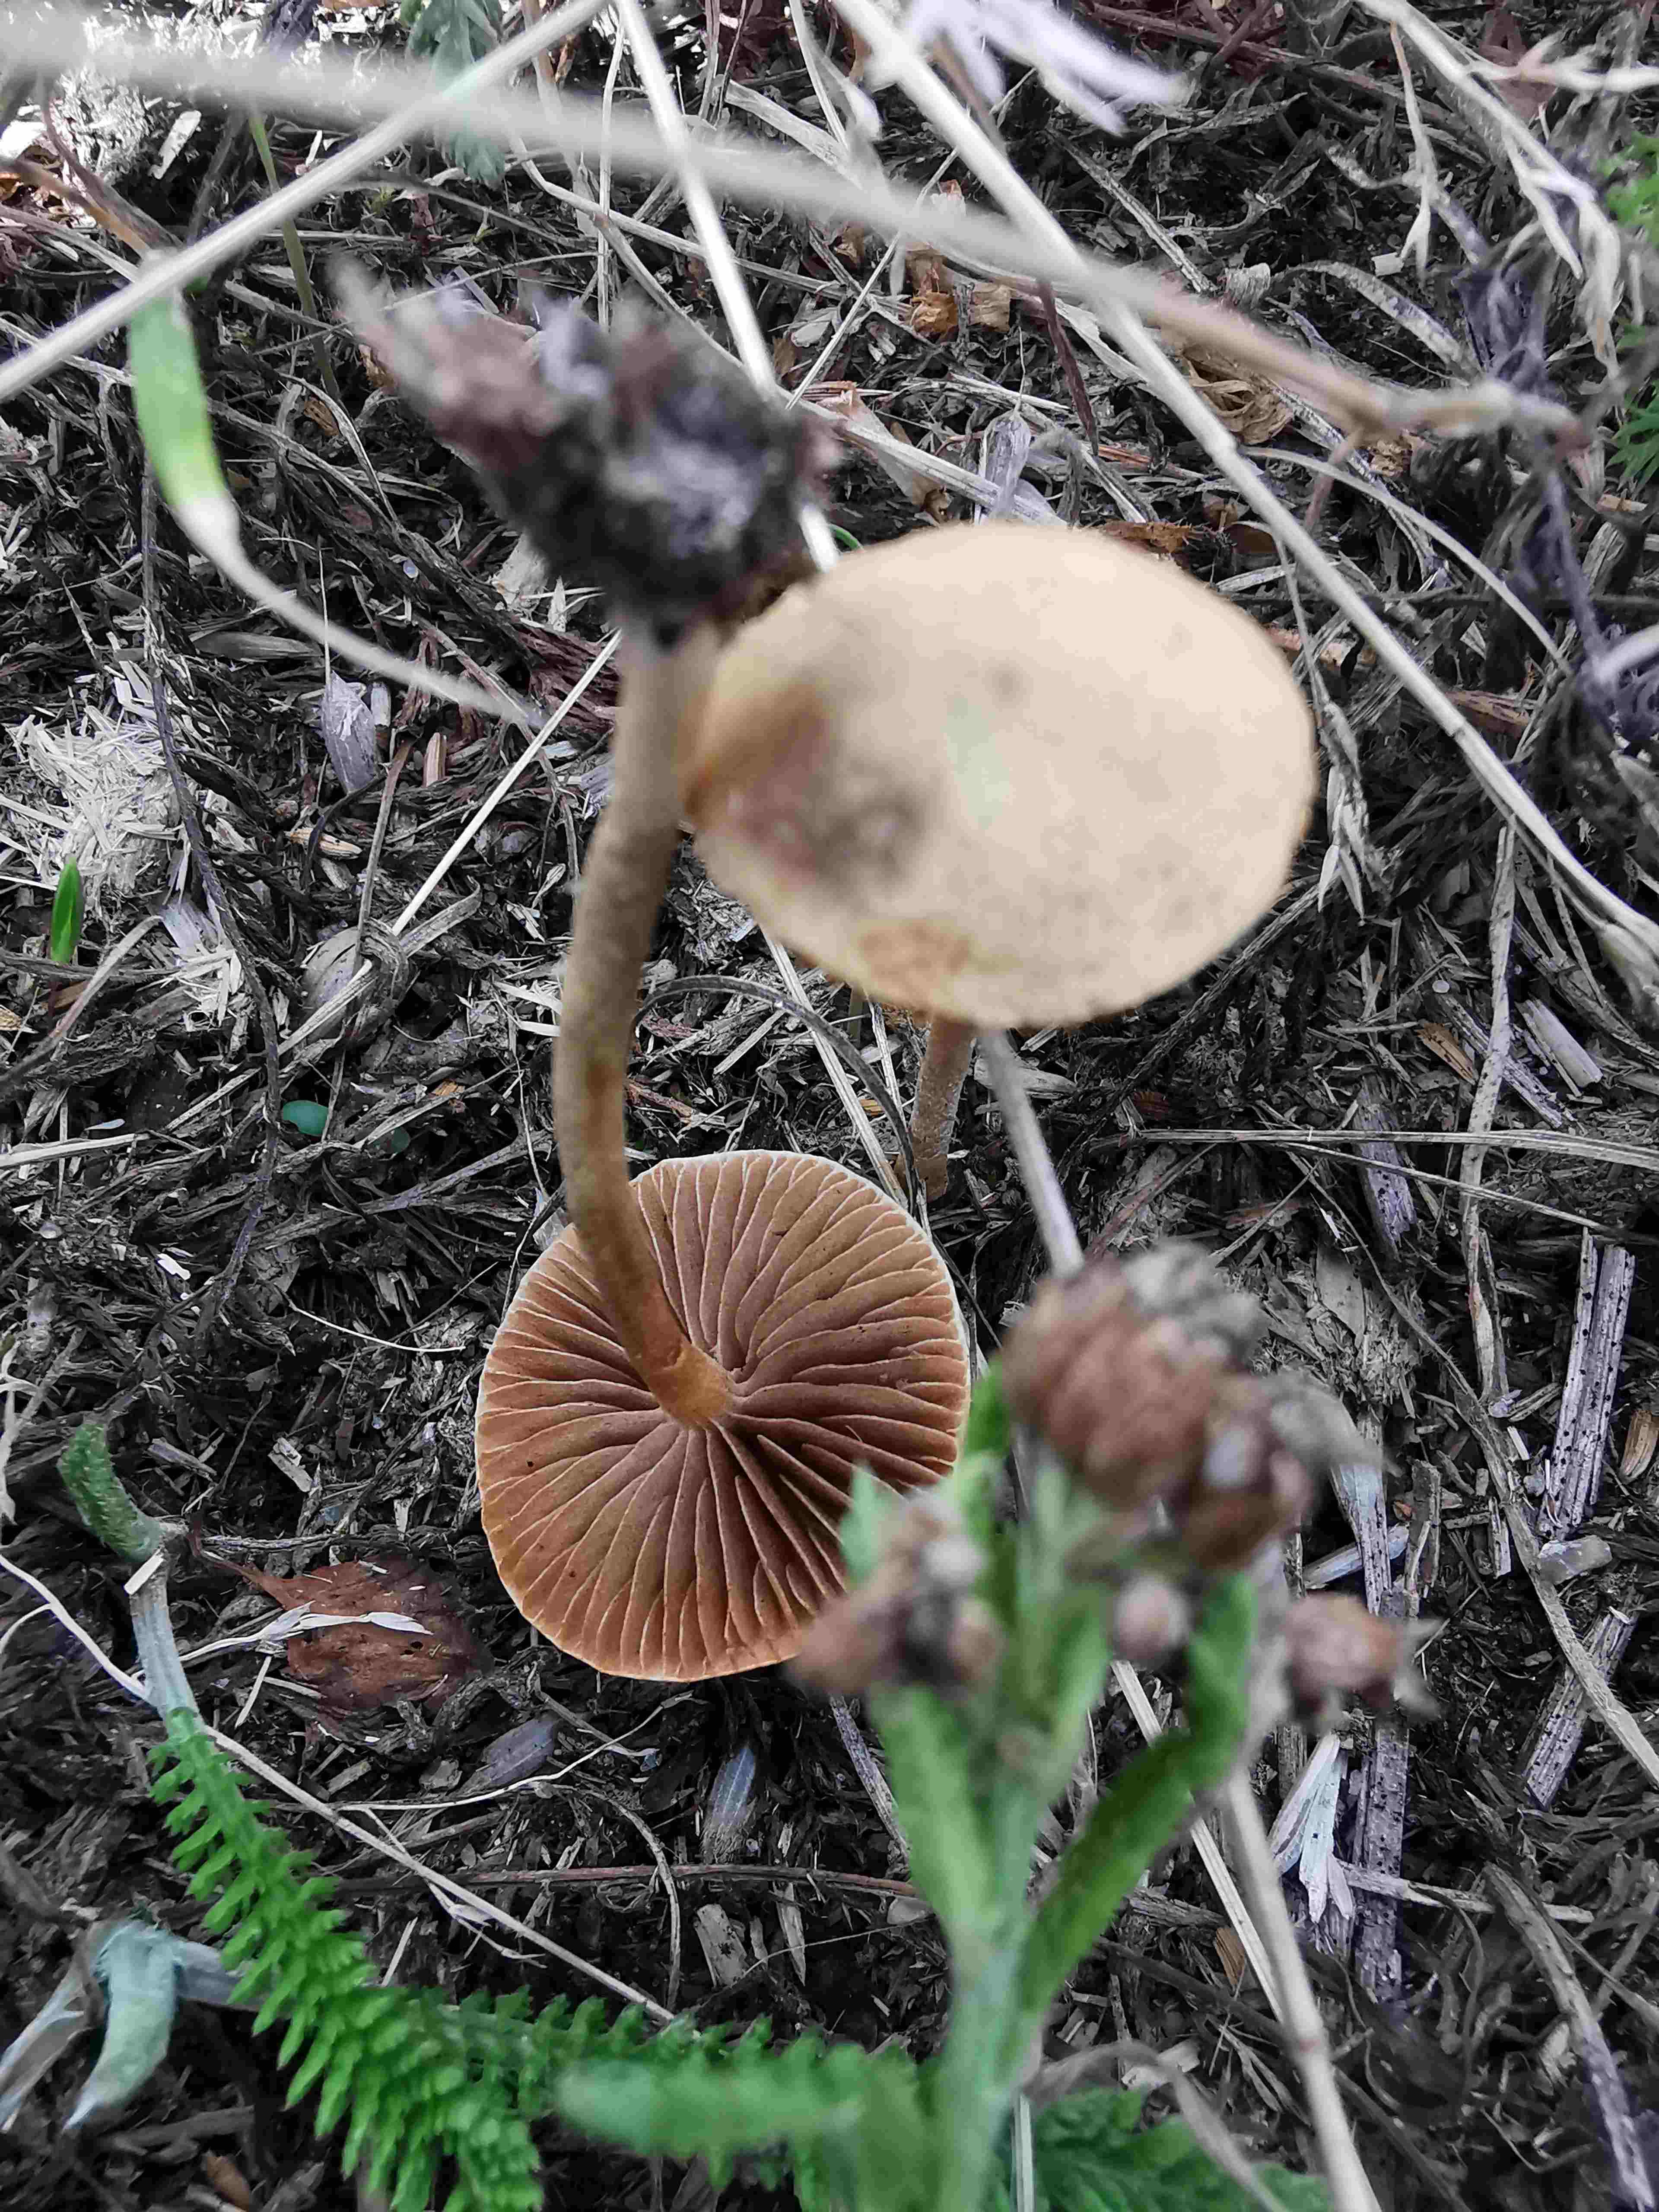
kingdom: Fungi
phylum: Basidiomycota
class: Agaricomycetes
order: Agaricales
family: Strophariaceae
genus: Agrocybe
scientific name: Agrocybe pediades
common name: almindelig agerhat
